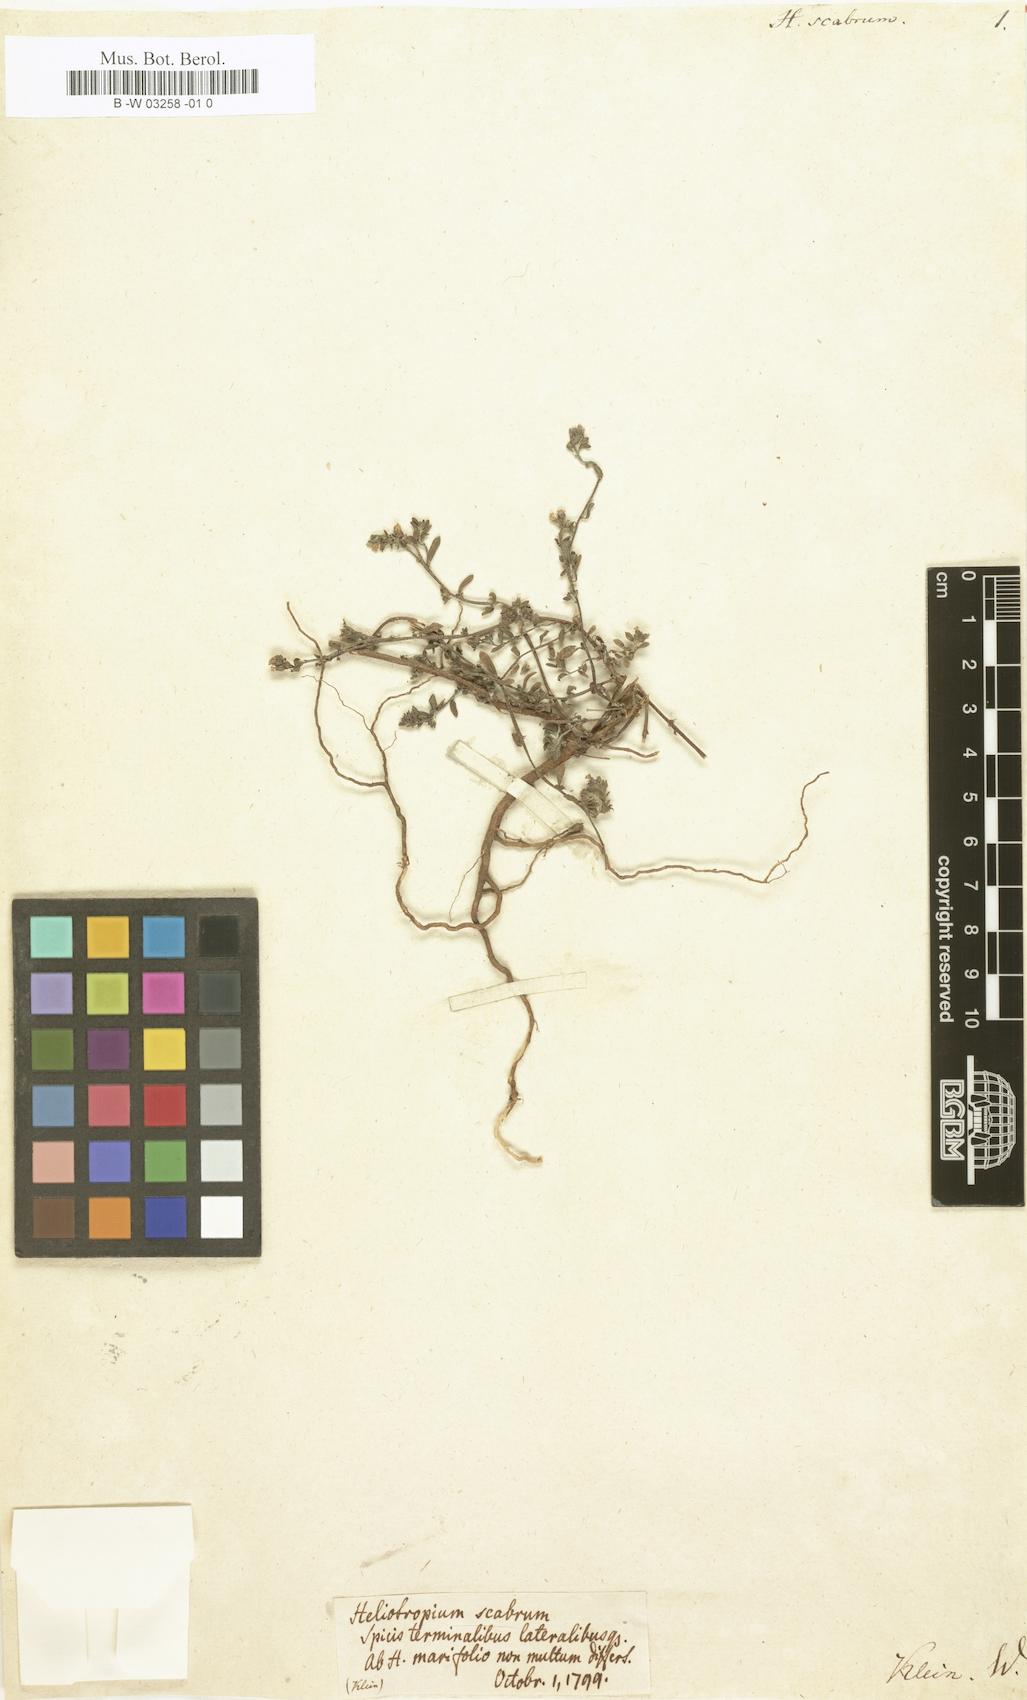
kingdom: Plantae
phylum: Tracheophyta
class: Magnoliopsida
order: Boraginales
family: Heliotropiaceae
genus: Euploca
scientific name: Euploca marifolia
